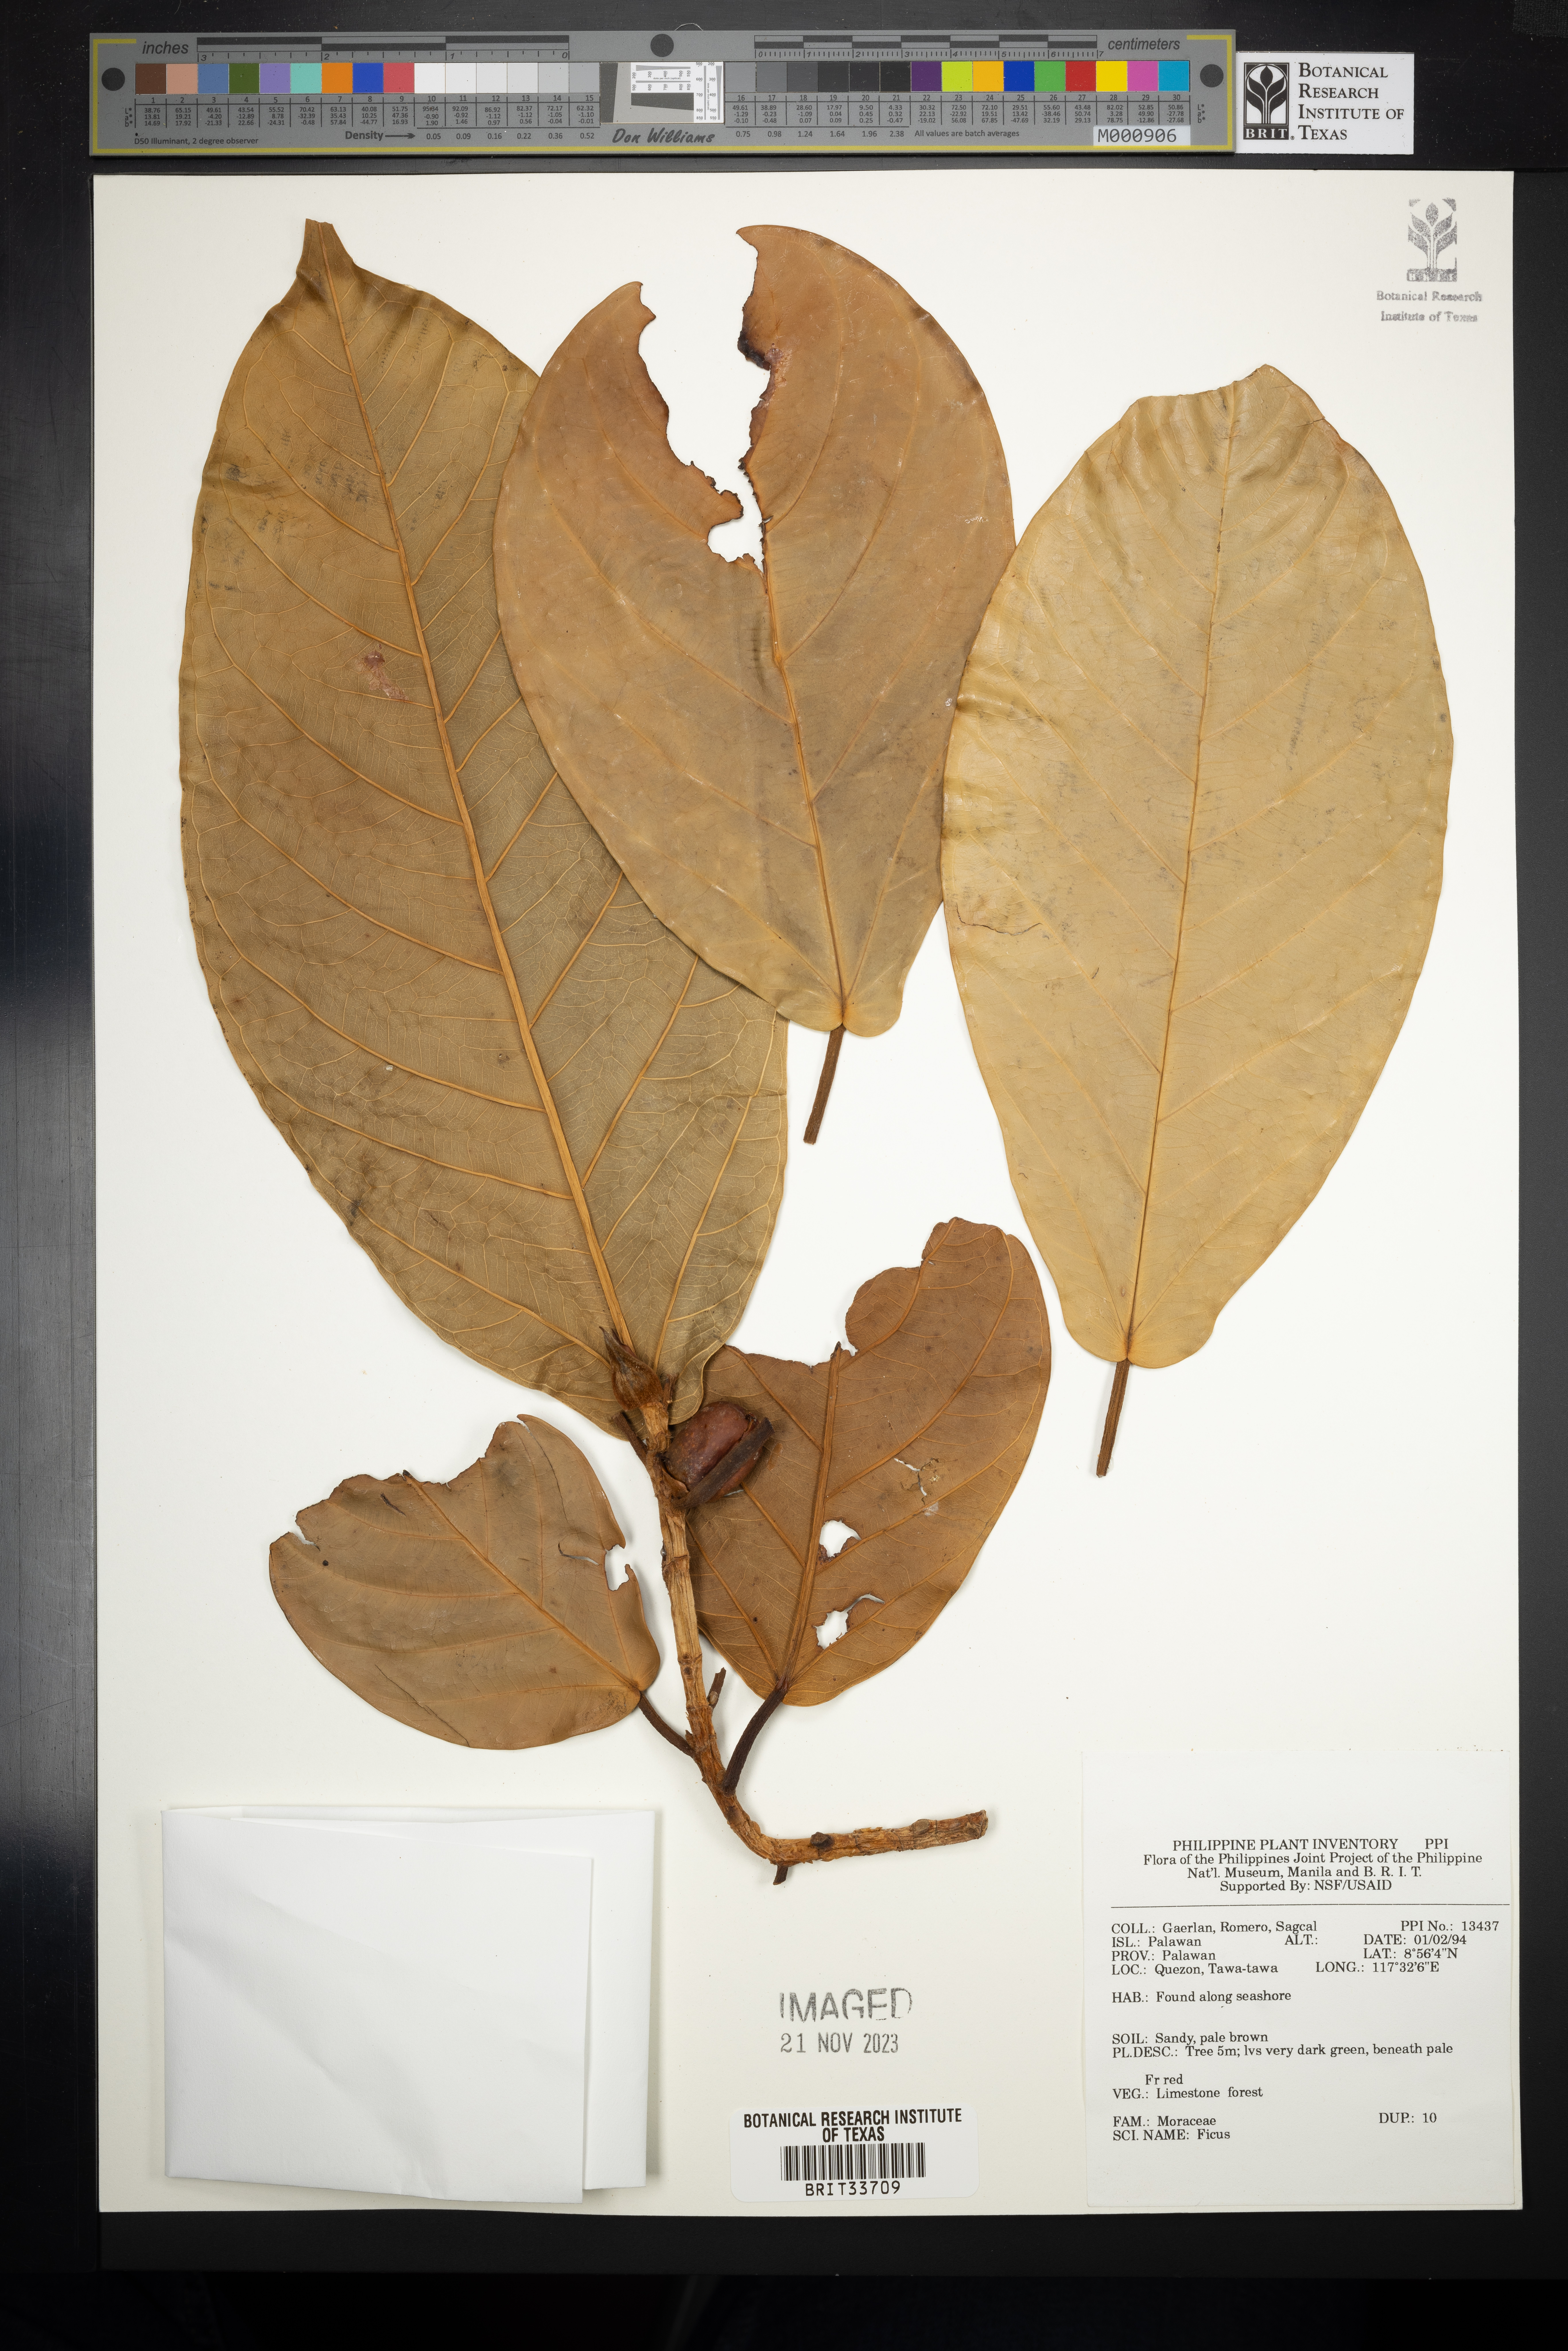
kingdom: Plantae
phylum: Tracheophyta
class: Magnoliopsida
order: Rosales
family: Moraceae
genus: Ficus
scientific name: Ficus
